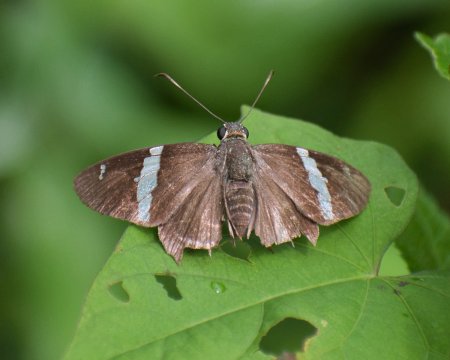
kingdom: Animalia
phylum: Arthropoda
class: Insecta
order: Lepidoptera
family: Hesperiidae
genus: Autochton
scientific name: Autochton neis
